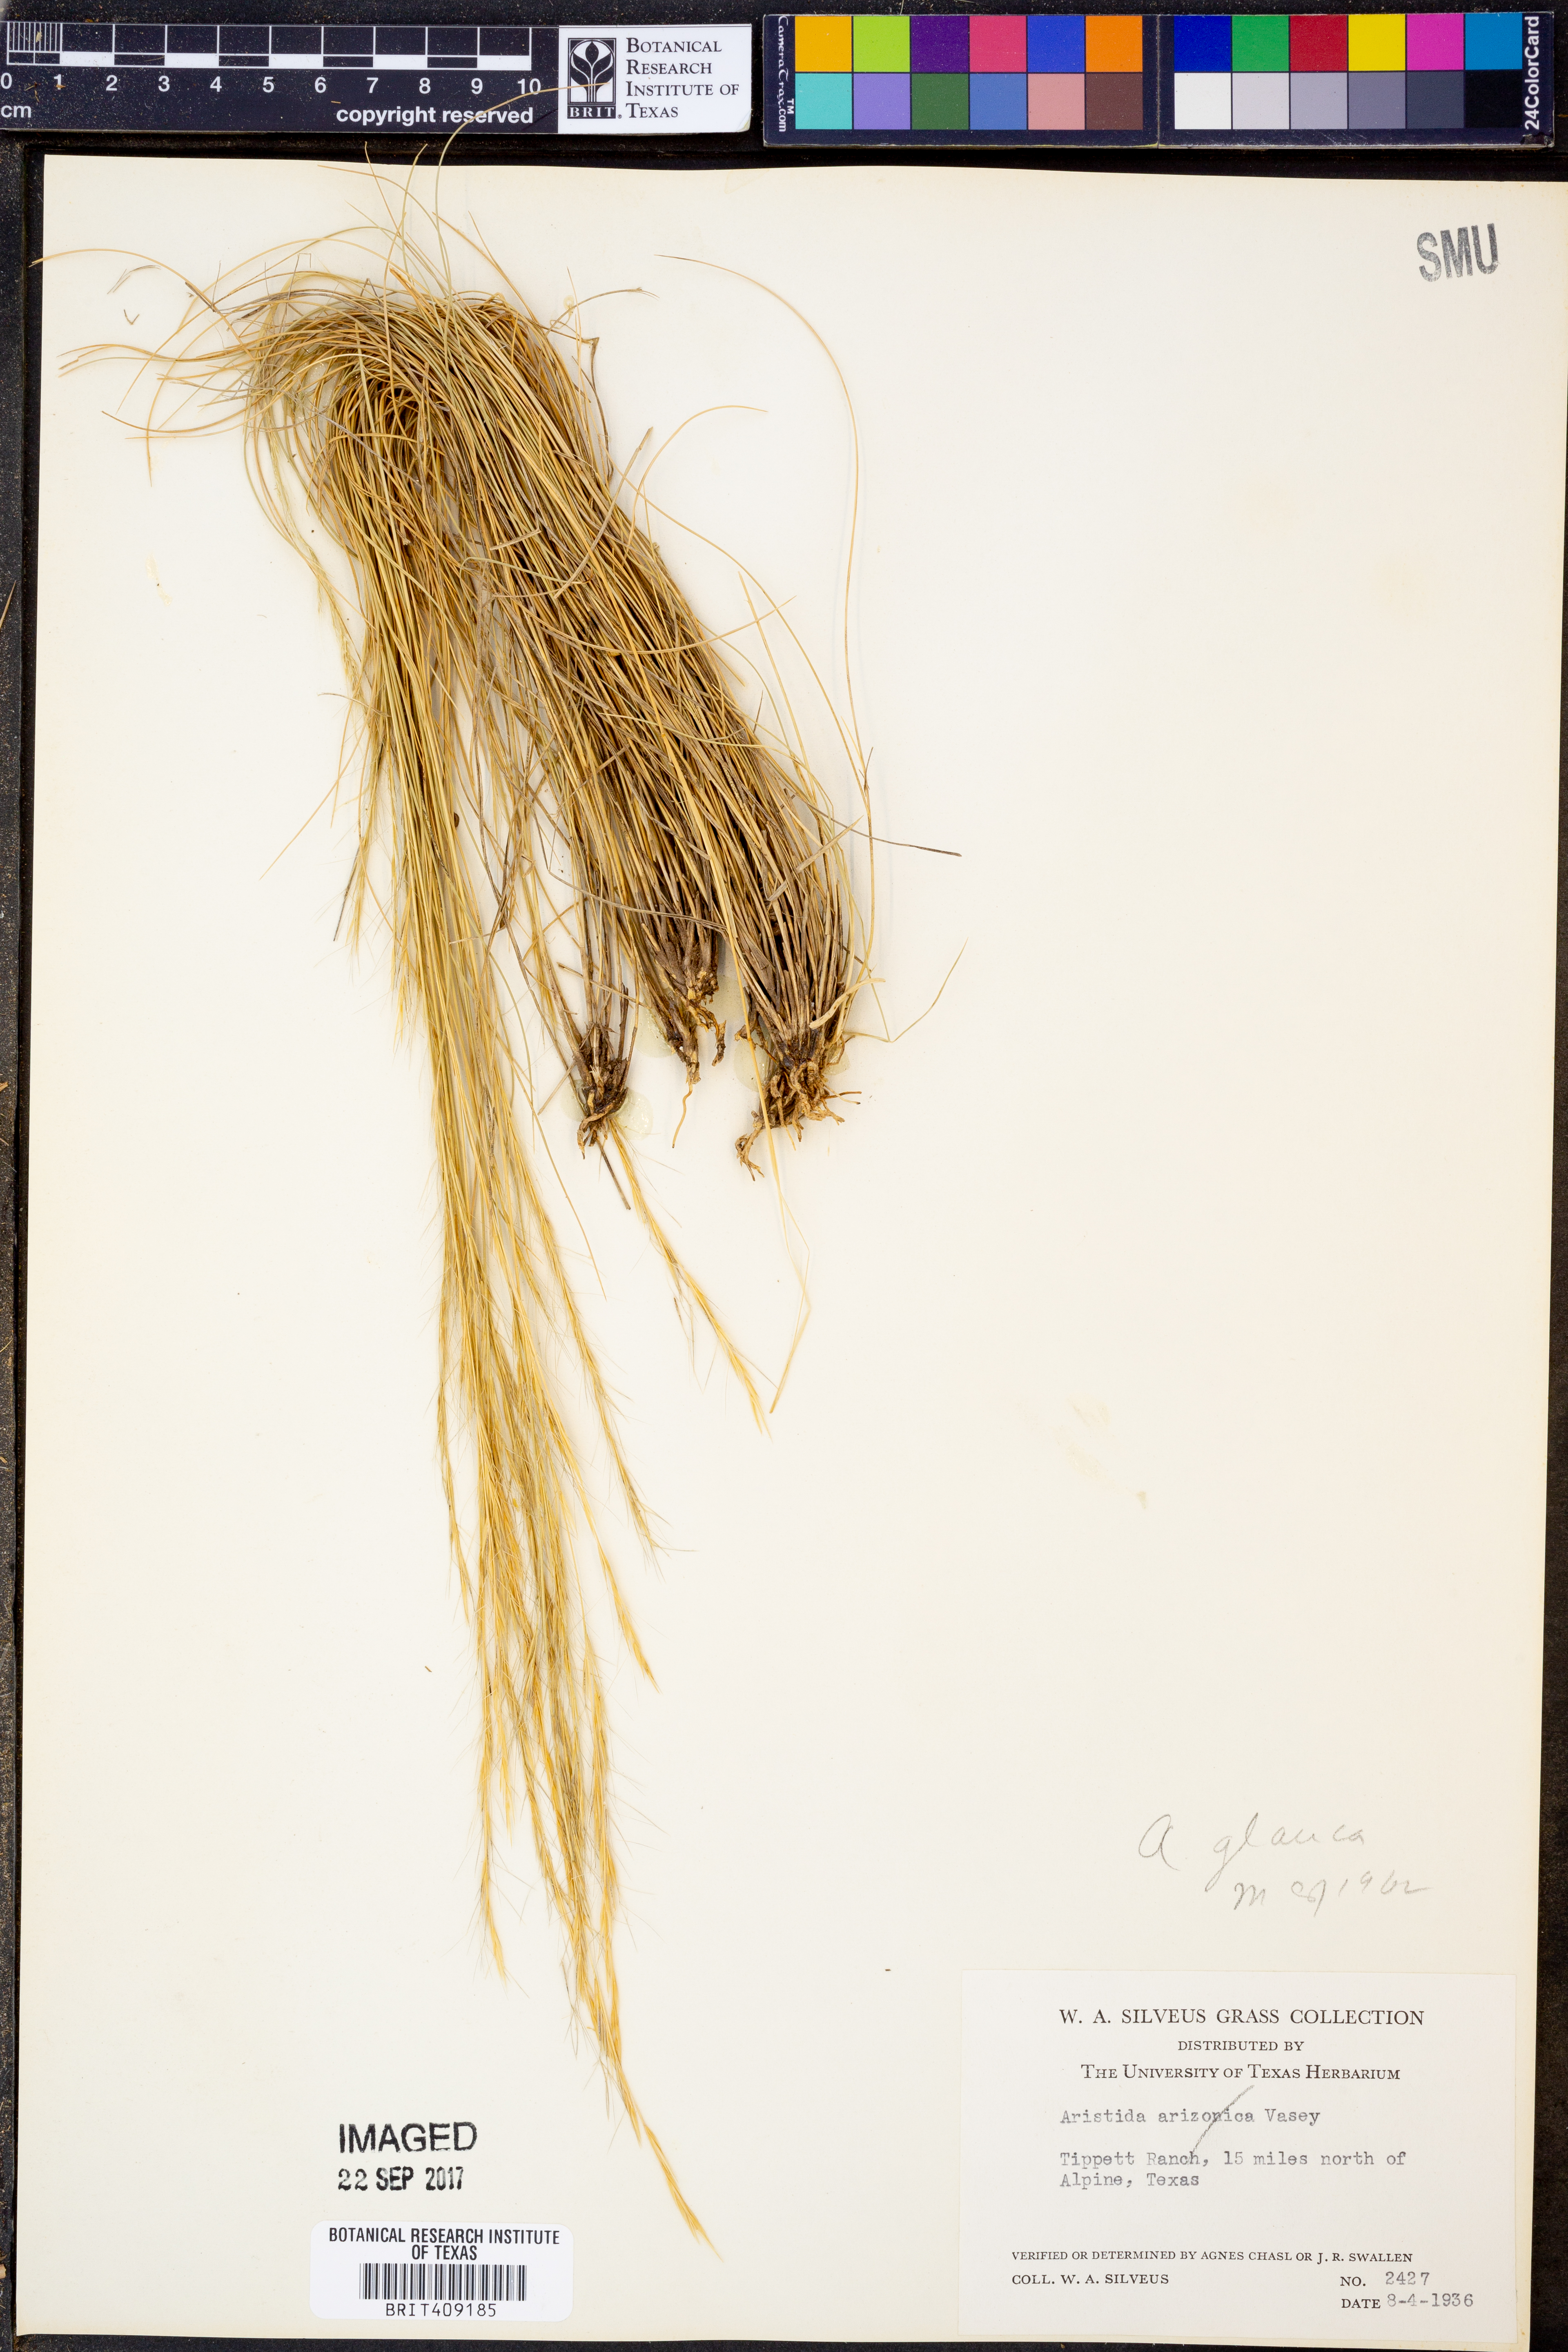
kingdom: Plantae
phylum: Tracheophyta
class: Liliopsida
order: Poales
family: Poaceae
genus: Aristida
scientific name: Aristida glauca
